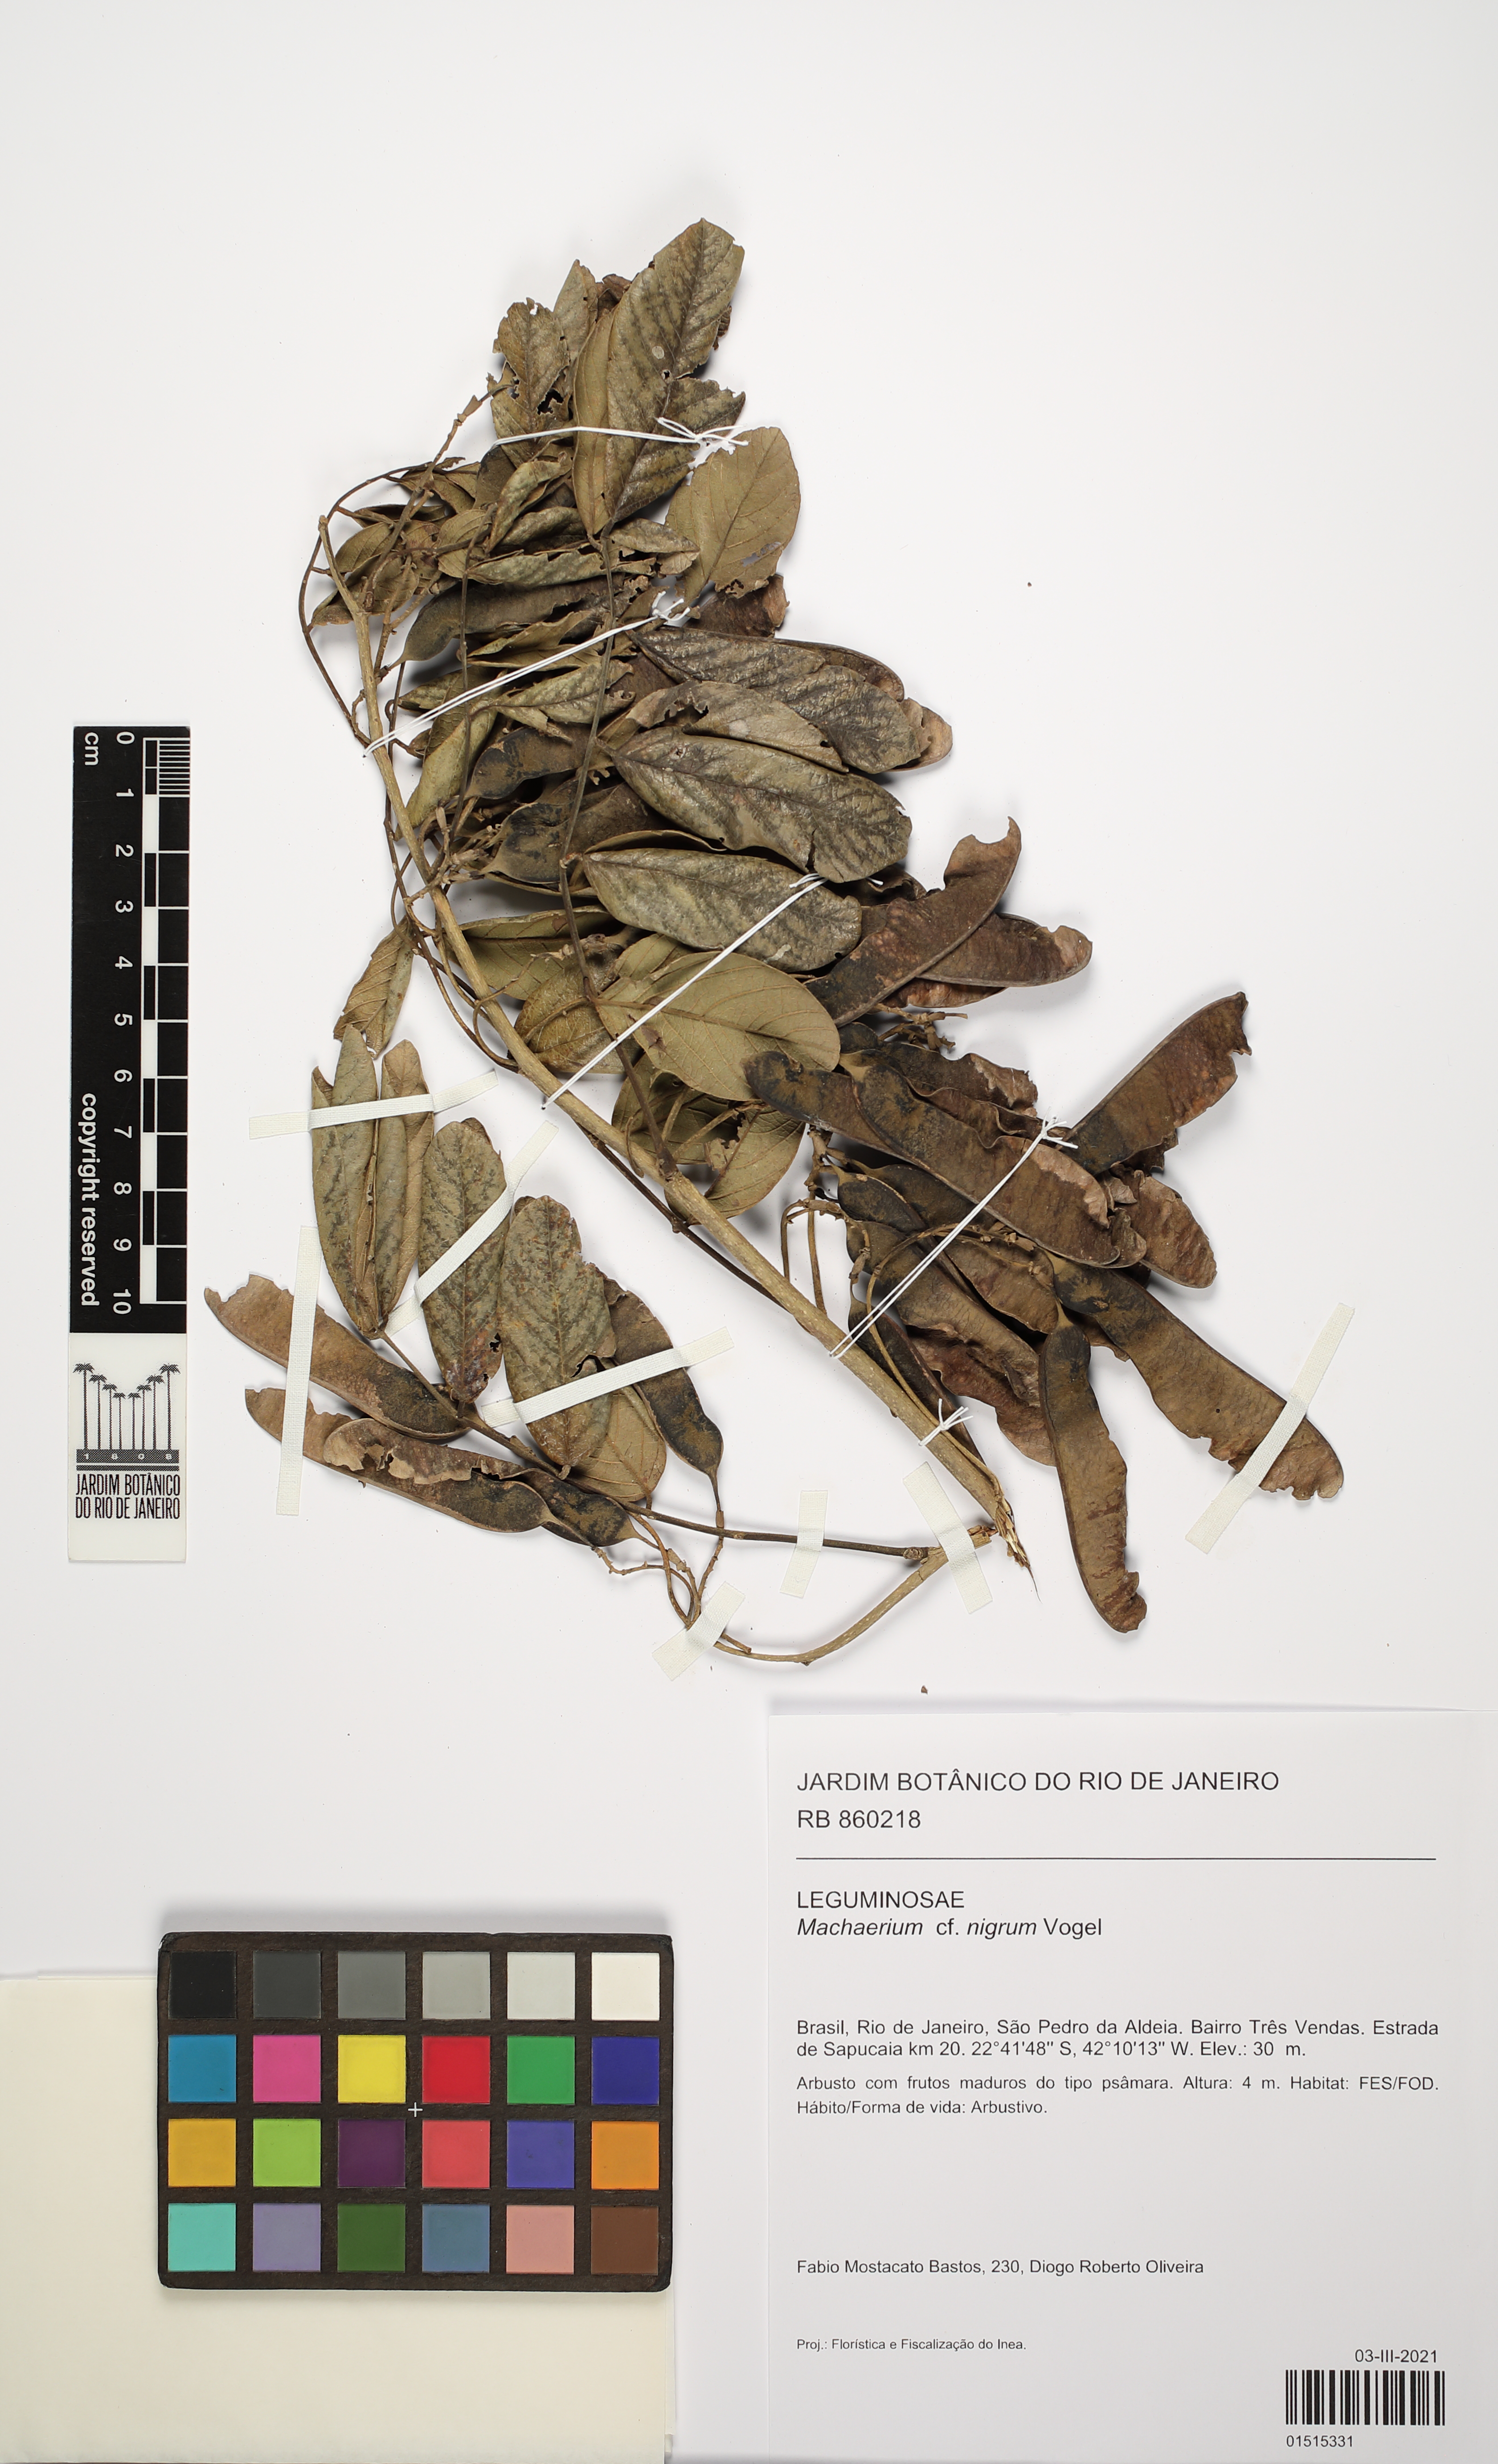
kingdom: Plantae
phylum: Tracheophyta
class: Magnoliopsida
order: Fabales
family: Fabaceae
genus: Machaerium
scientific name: Machaerium nigrum
